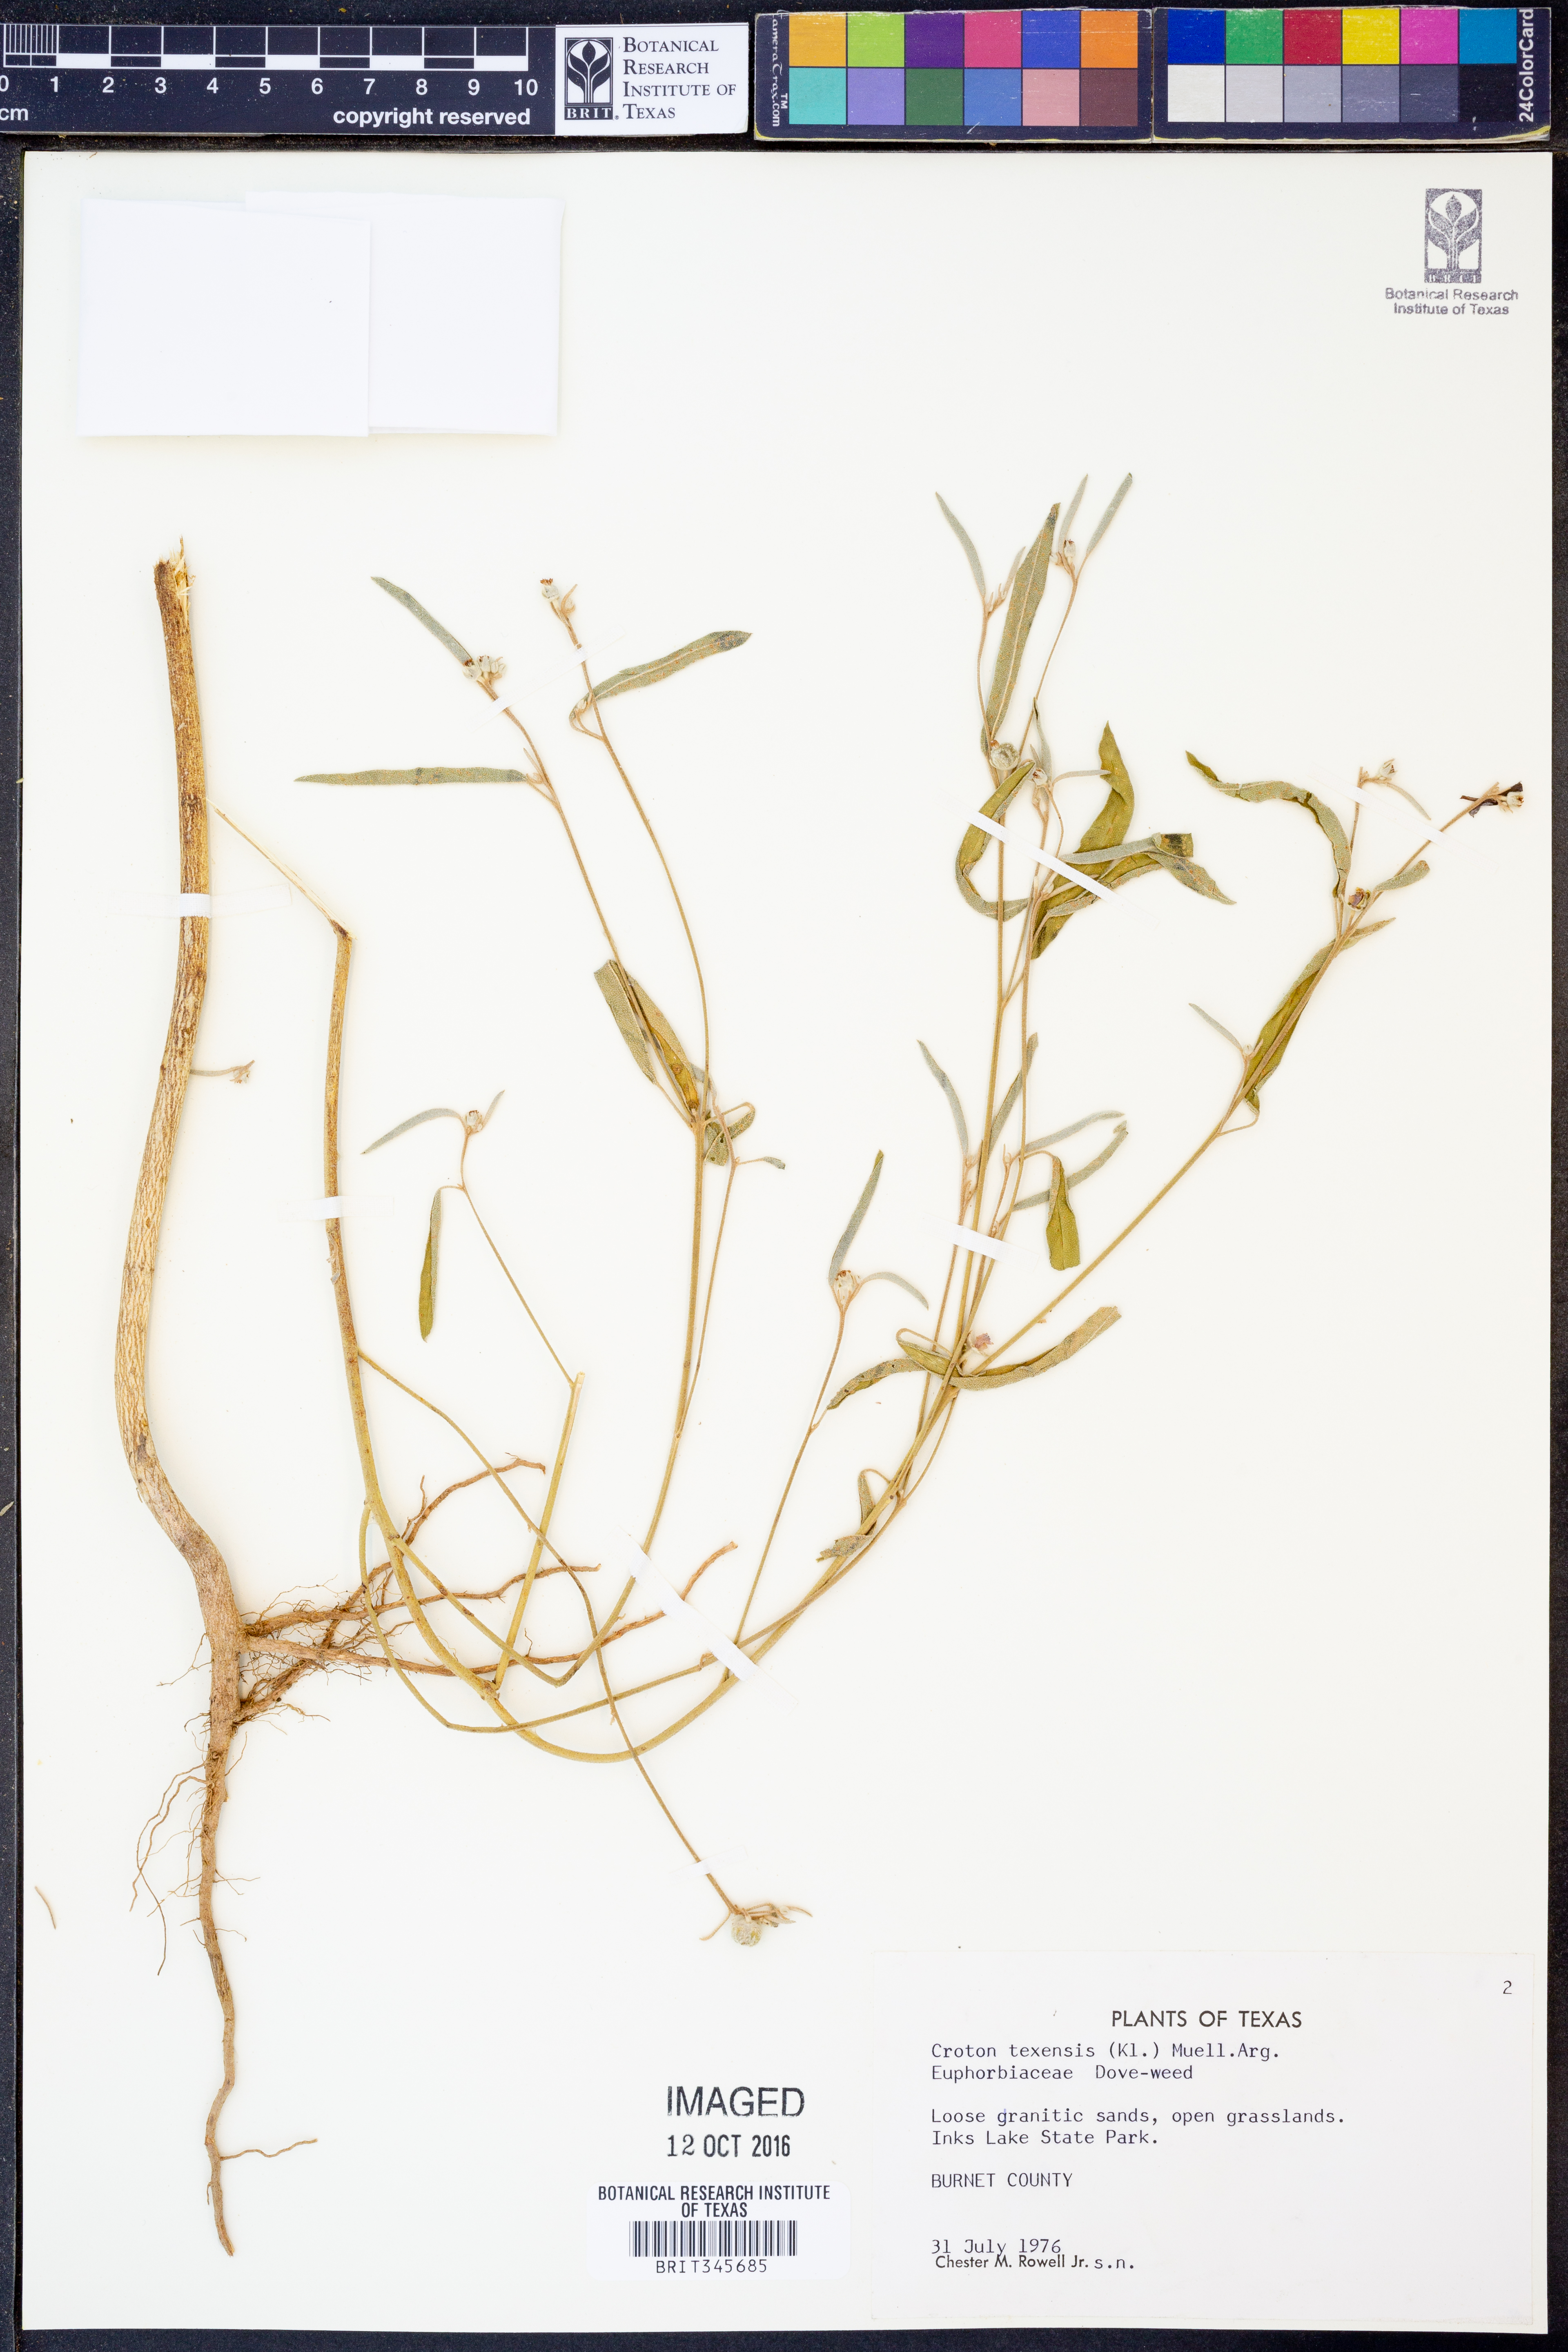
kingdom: Plantae
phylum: Tracheophyta
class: Magnoliopsida
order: Malpighiales
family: Euphorbiaceae
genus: Croton
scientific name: Croton texensis
